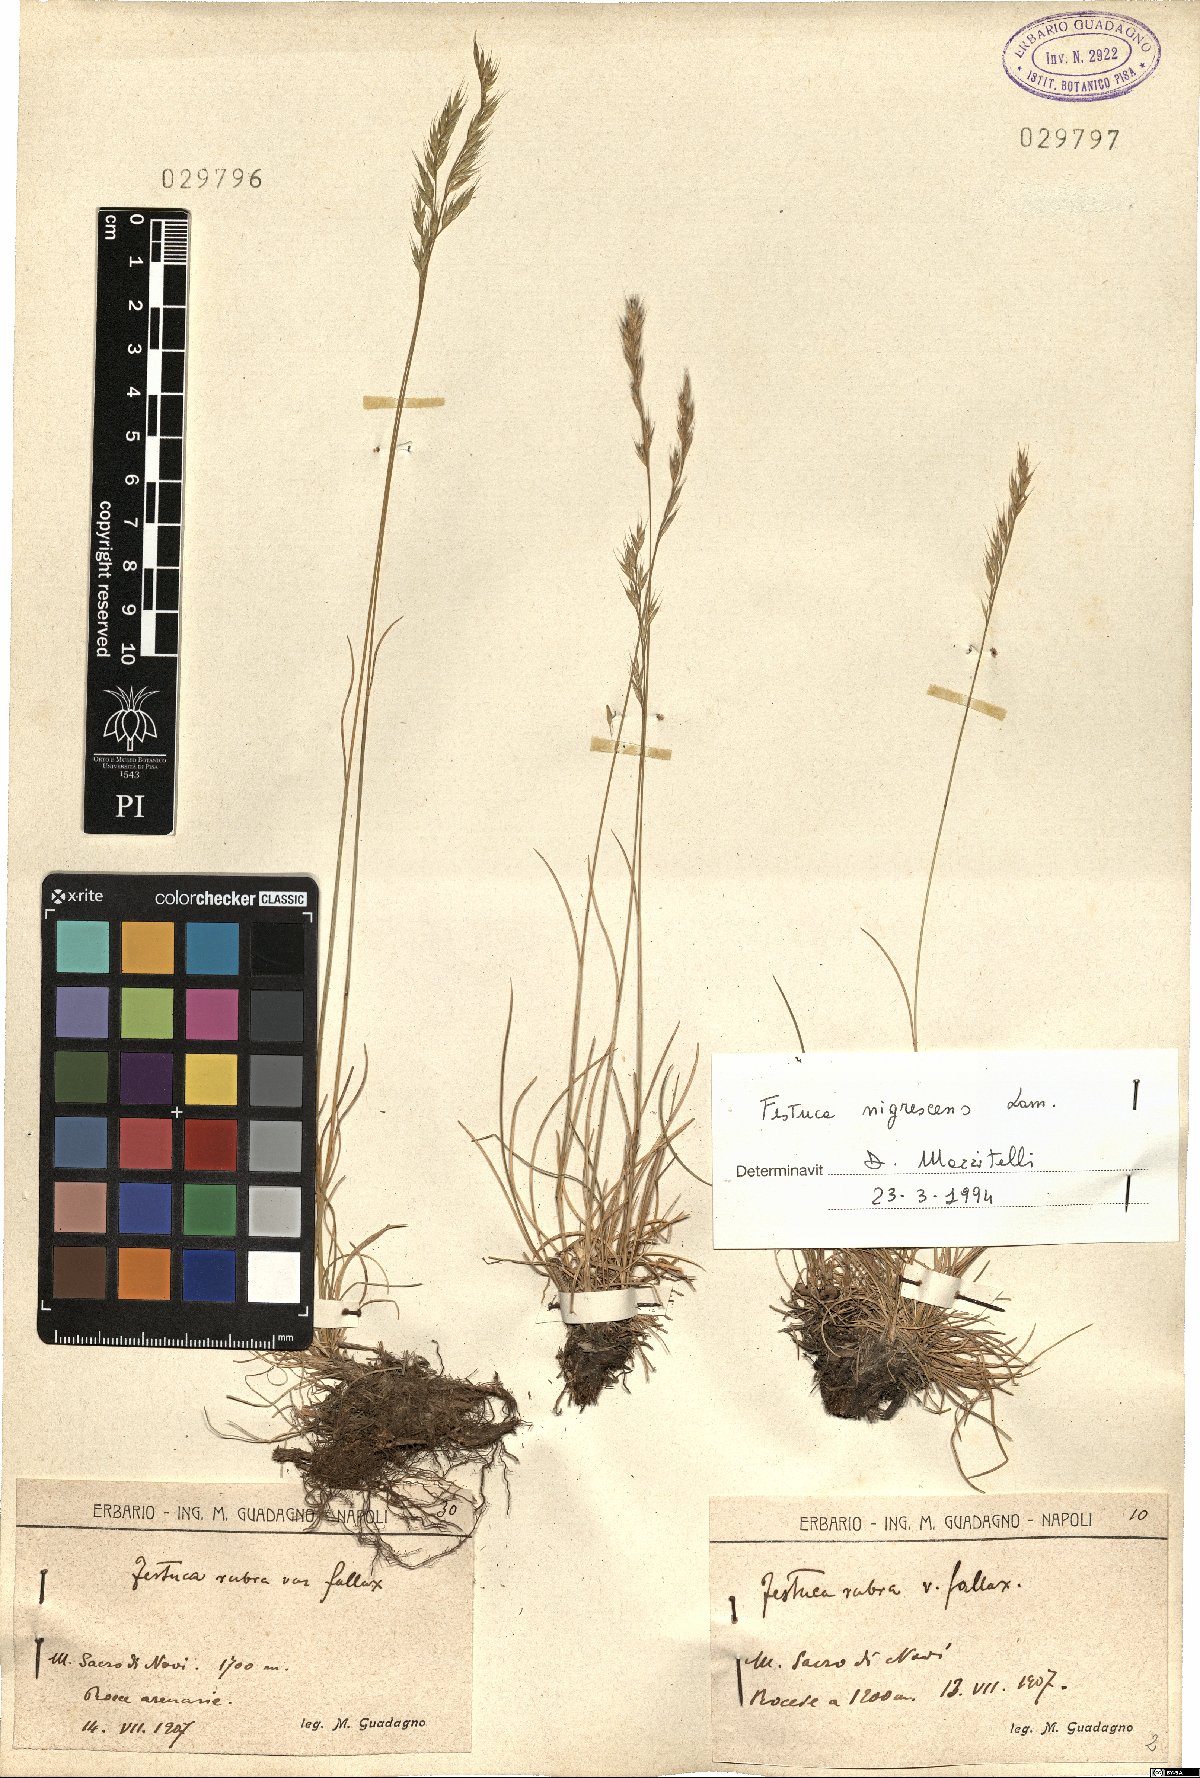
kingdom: Plantae
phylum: Tracheophyta
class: Liliopsida
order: Poales
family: Poaceae
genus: Festuca
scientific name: Festuca nigrescens
